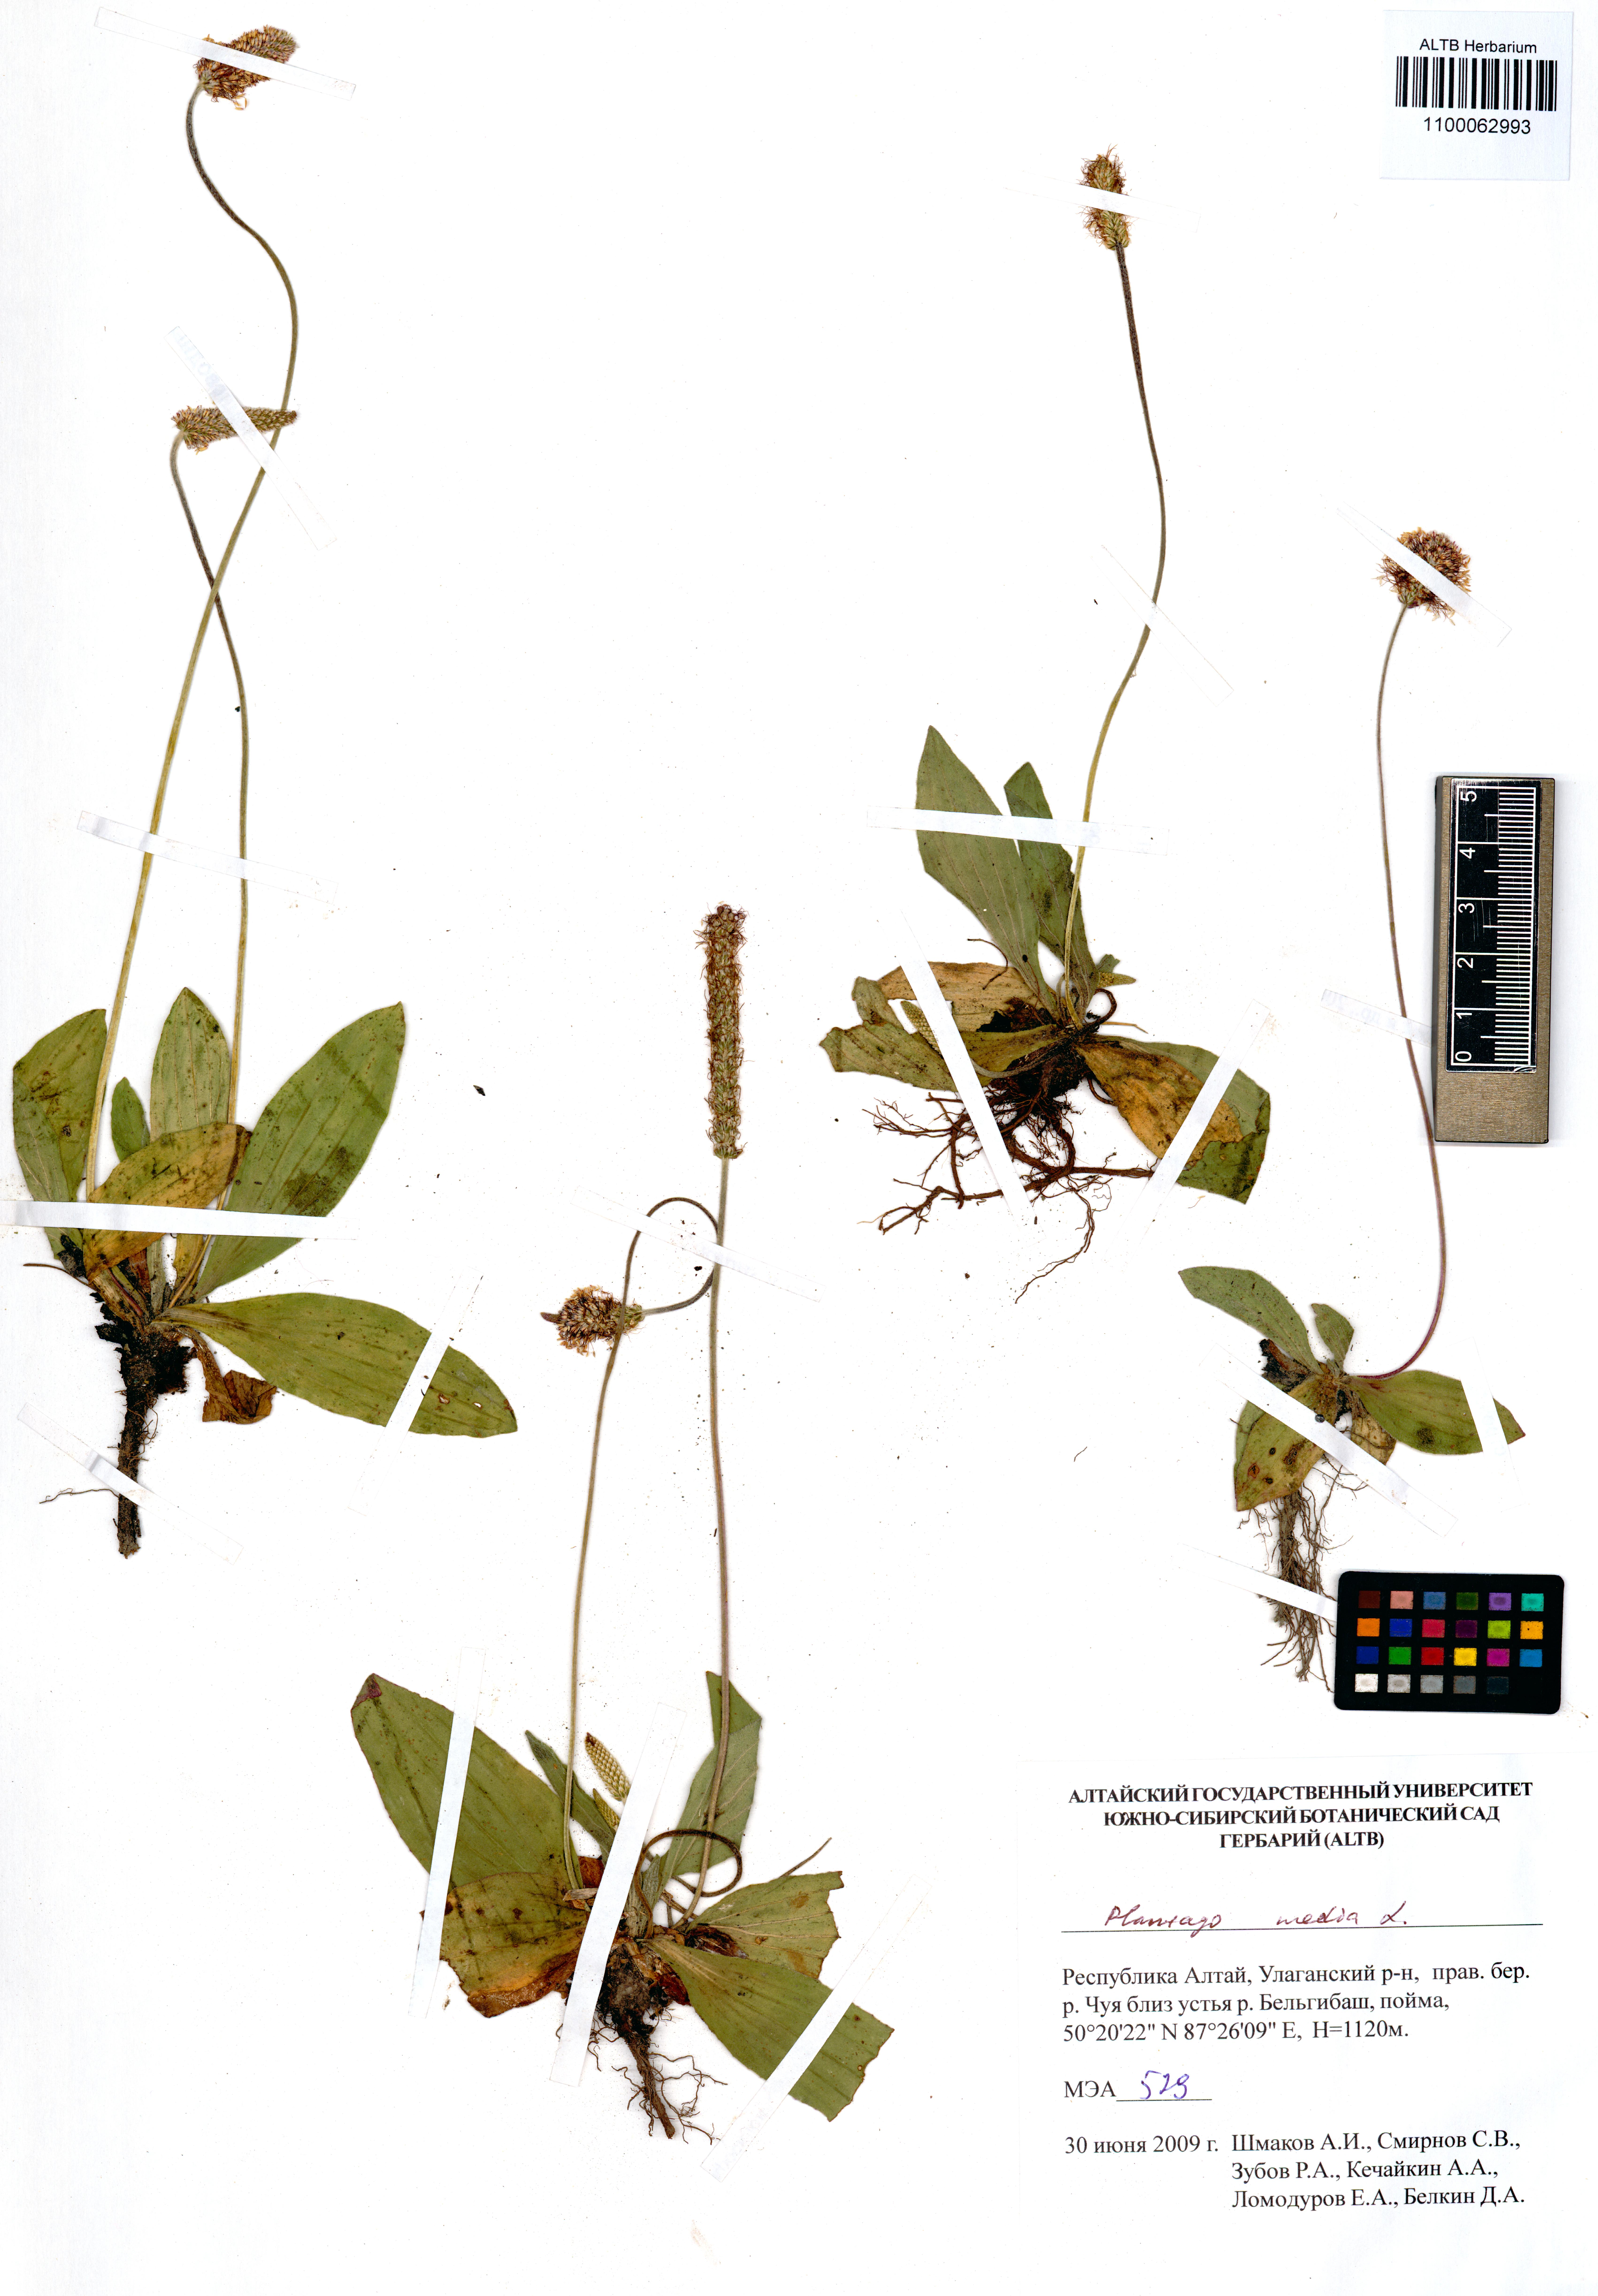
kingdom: Plantae
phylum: Tracheophyta
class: Magnoliopsida
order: Lamiales
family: Plantaginaceae
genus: Plantago
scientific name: Plantago media
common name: Hoary plantain
